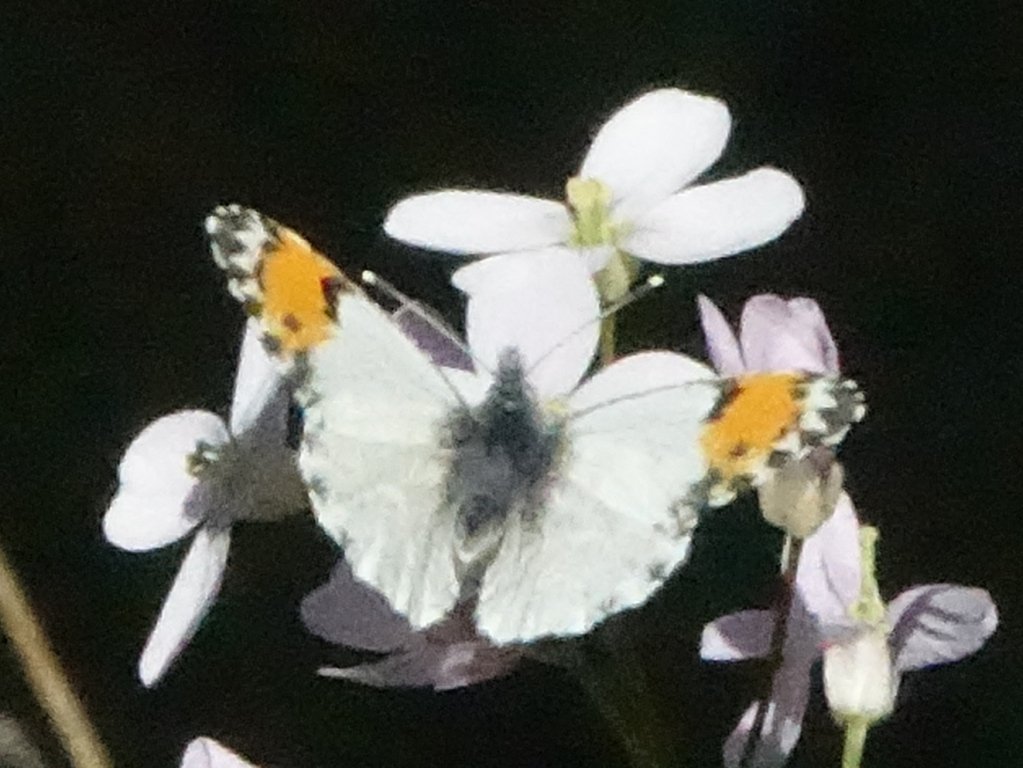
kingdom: Animalia
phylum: Arthropoda
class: Insecta
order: Lepidoptera
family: Pieridae
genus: Anthocharis
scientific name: Anthocharis sara
